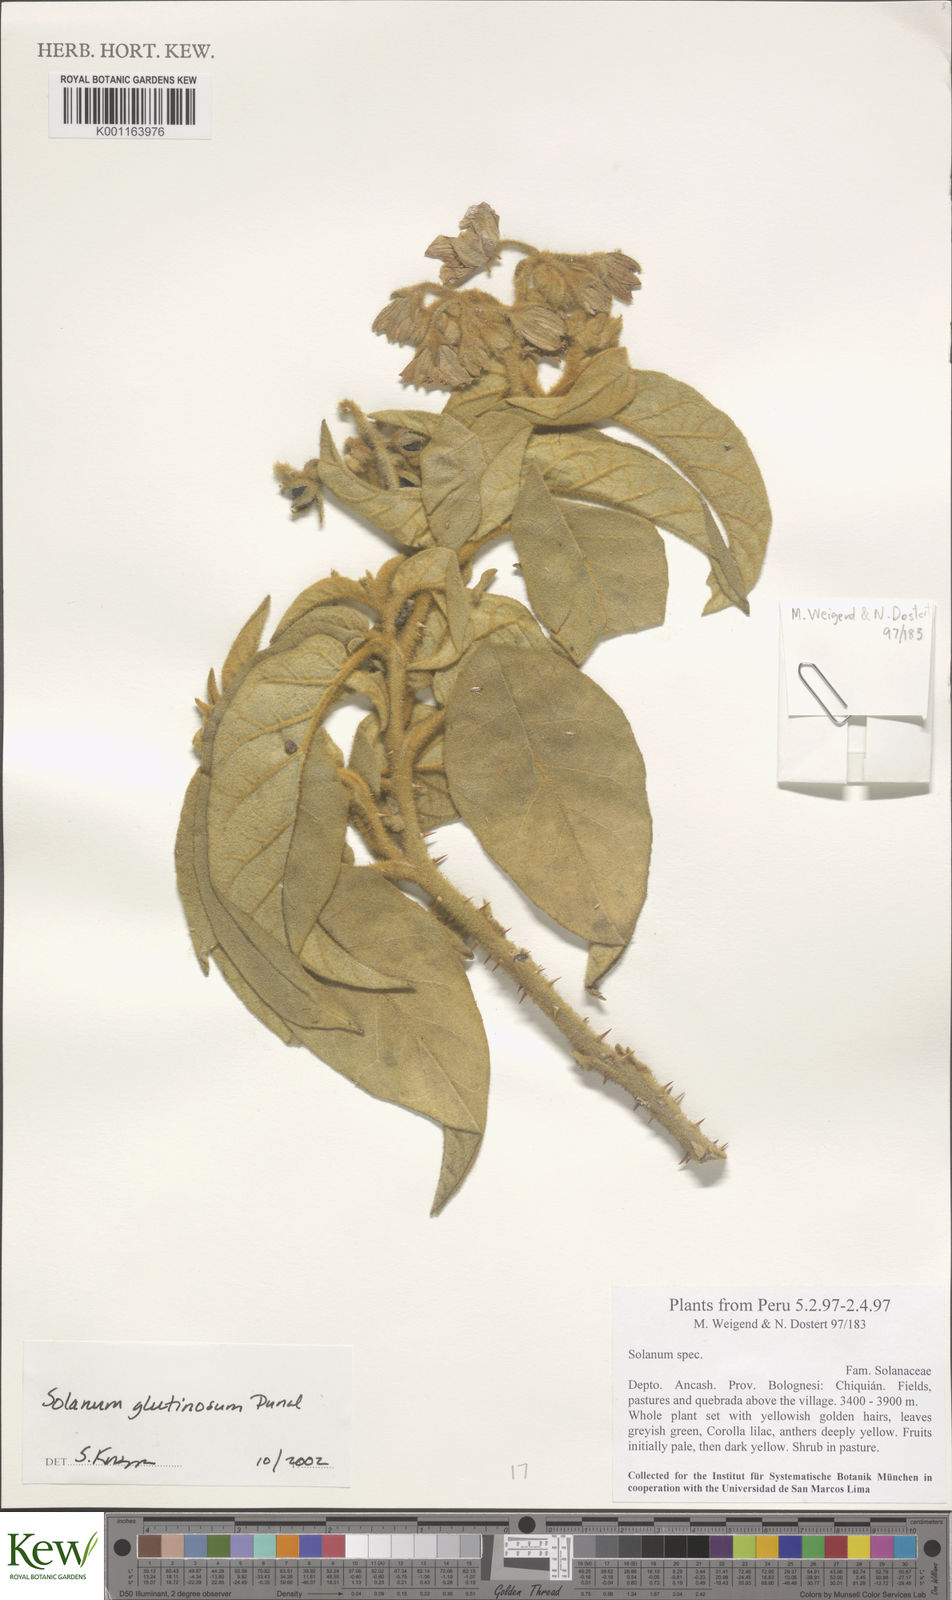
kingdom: Plantae
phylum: Tracheophyta
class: Magnoliopsida
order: Solanales
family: Solanaceae
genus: Solanum
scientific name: Solanum glutinosum
